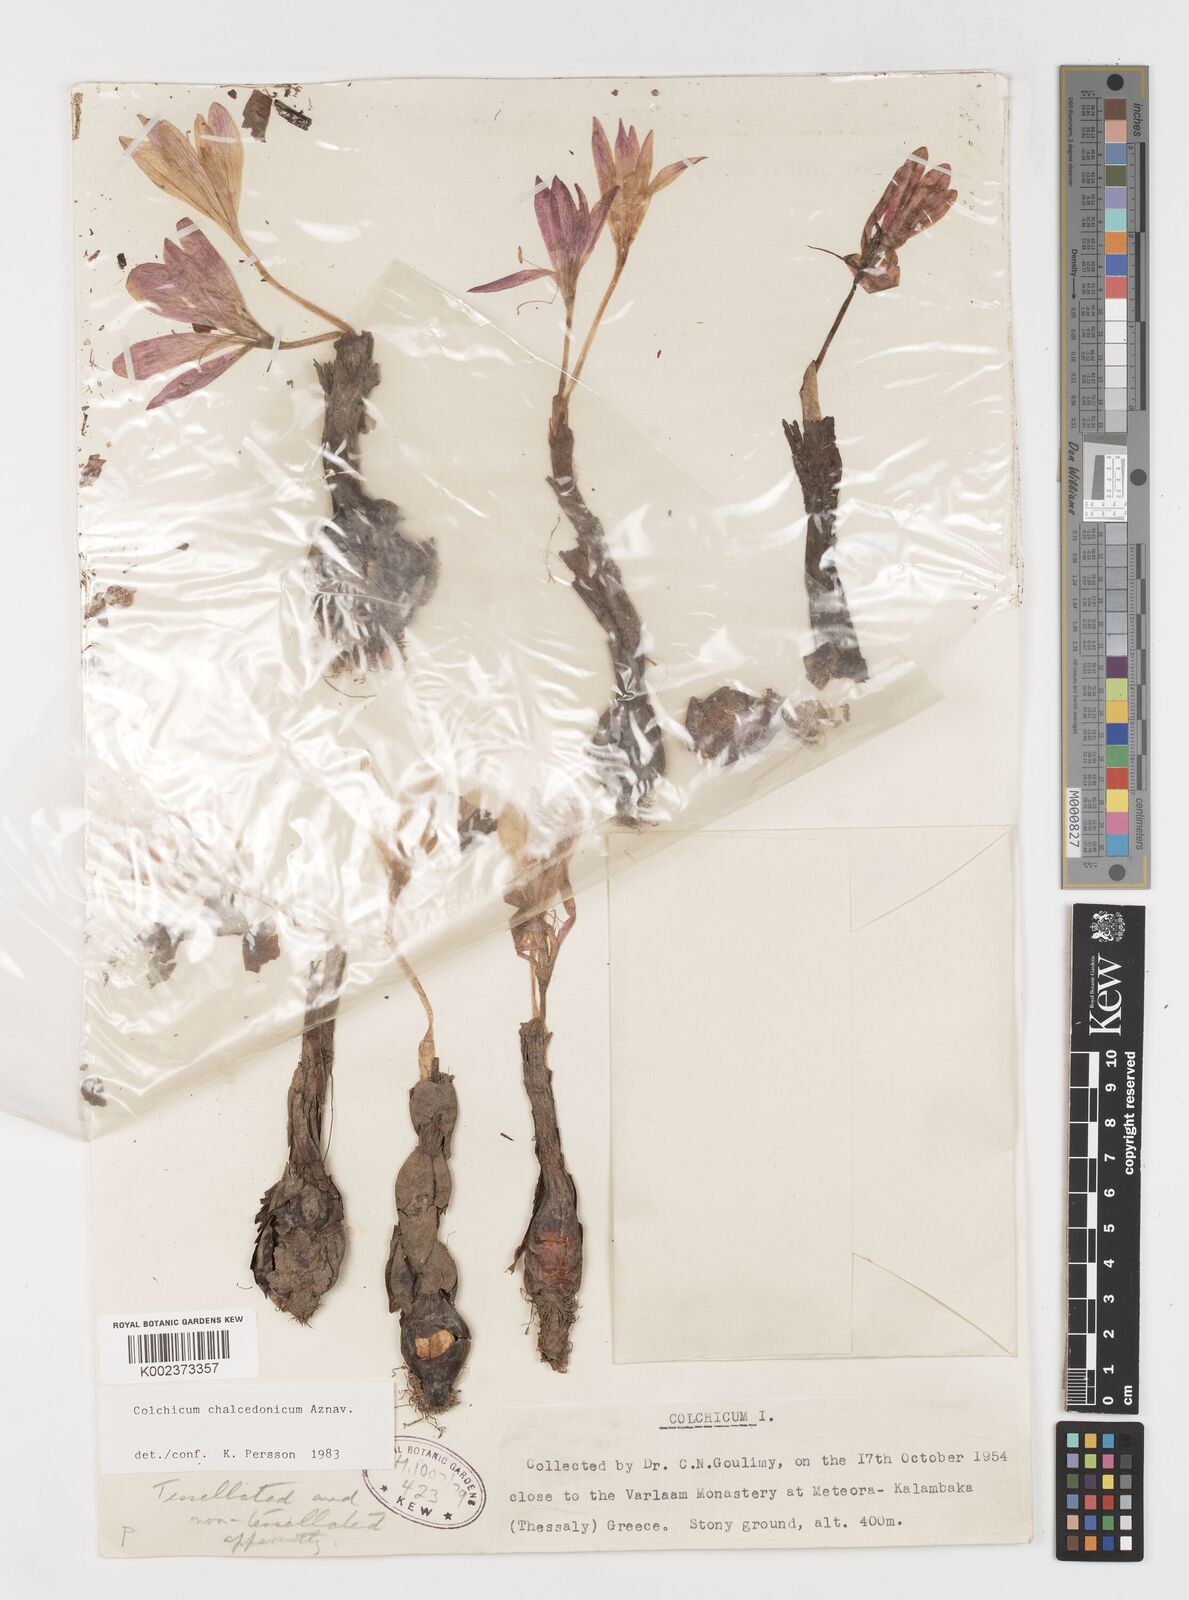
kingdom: Plantae
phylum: Tracheophyta
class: Liliopsida
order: Liliales
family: Colchicaceae
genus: Colchicum
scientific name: Colchicum chalcedonicum
